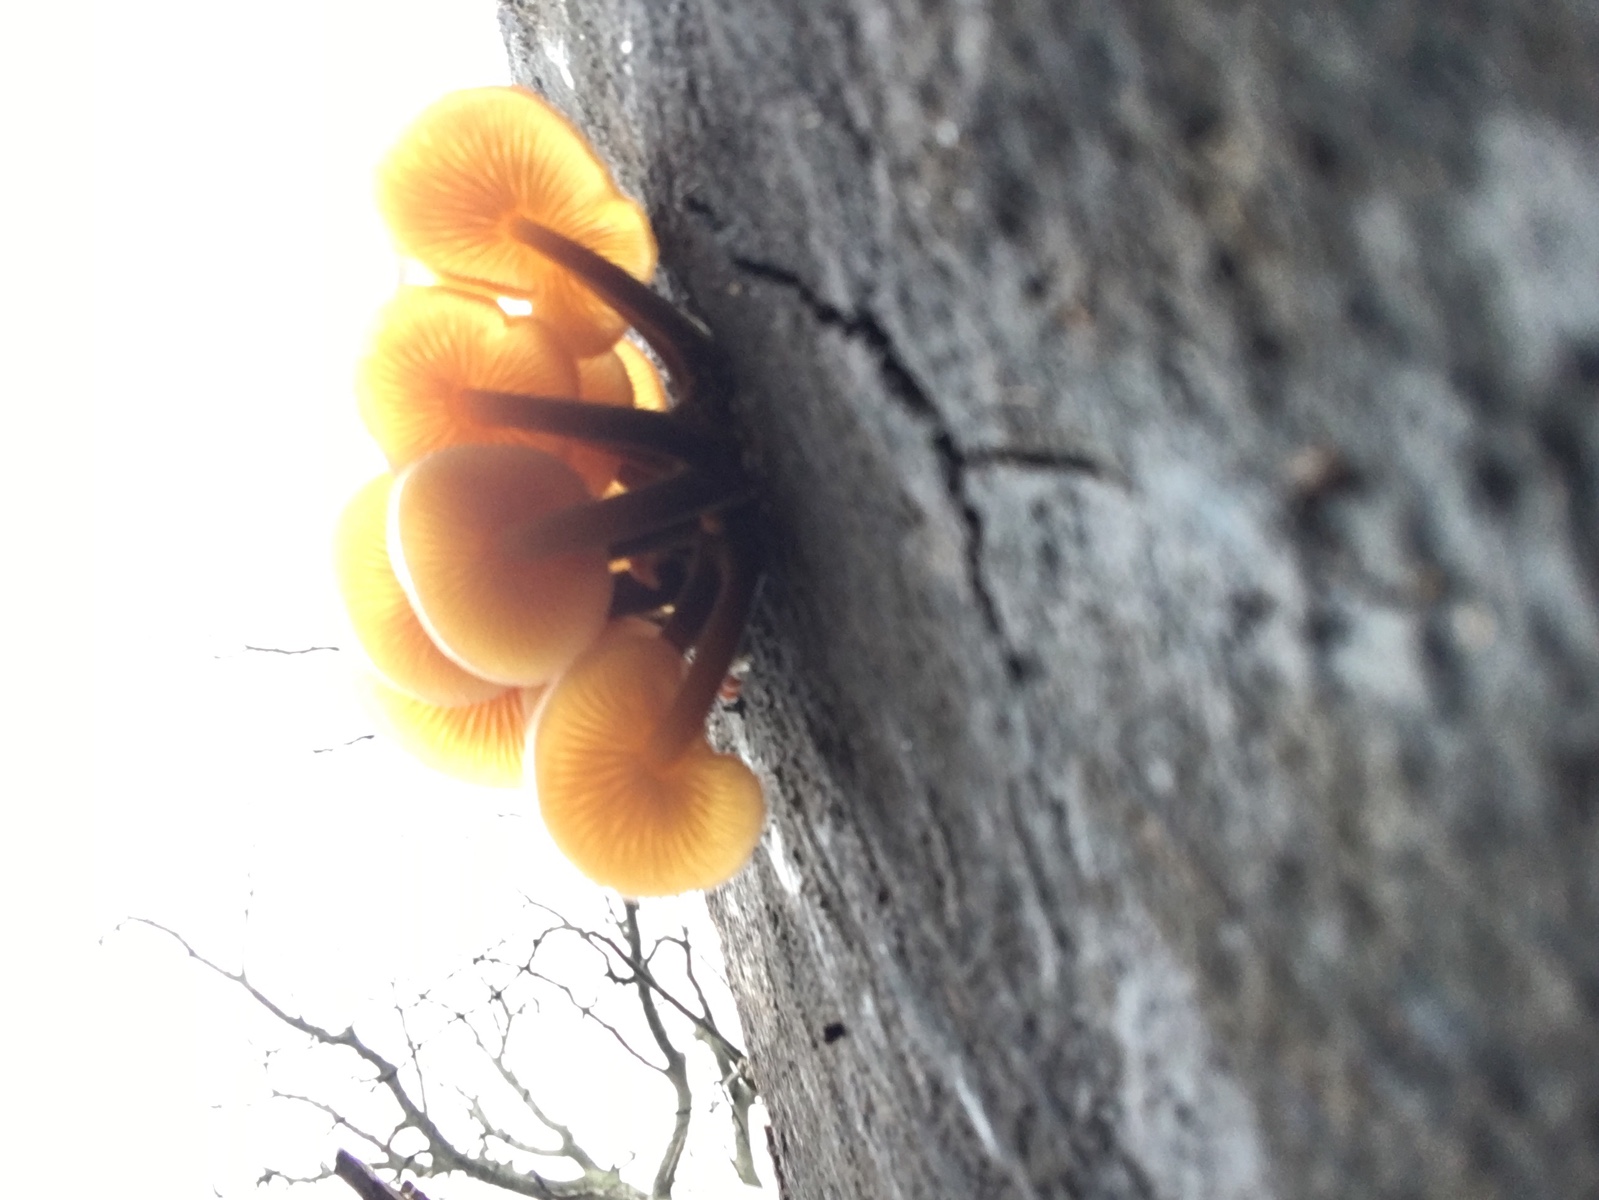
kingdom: Fungi
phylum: Basidiomycota
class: Agaricomycetes
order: Agaricales
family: Physalacriaceae
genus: Flammulina
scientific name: Flammulina velutipes
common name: gul fløjlsfod
